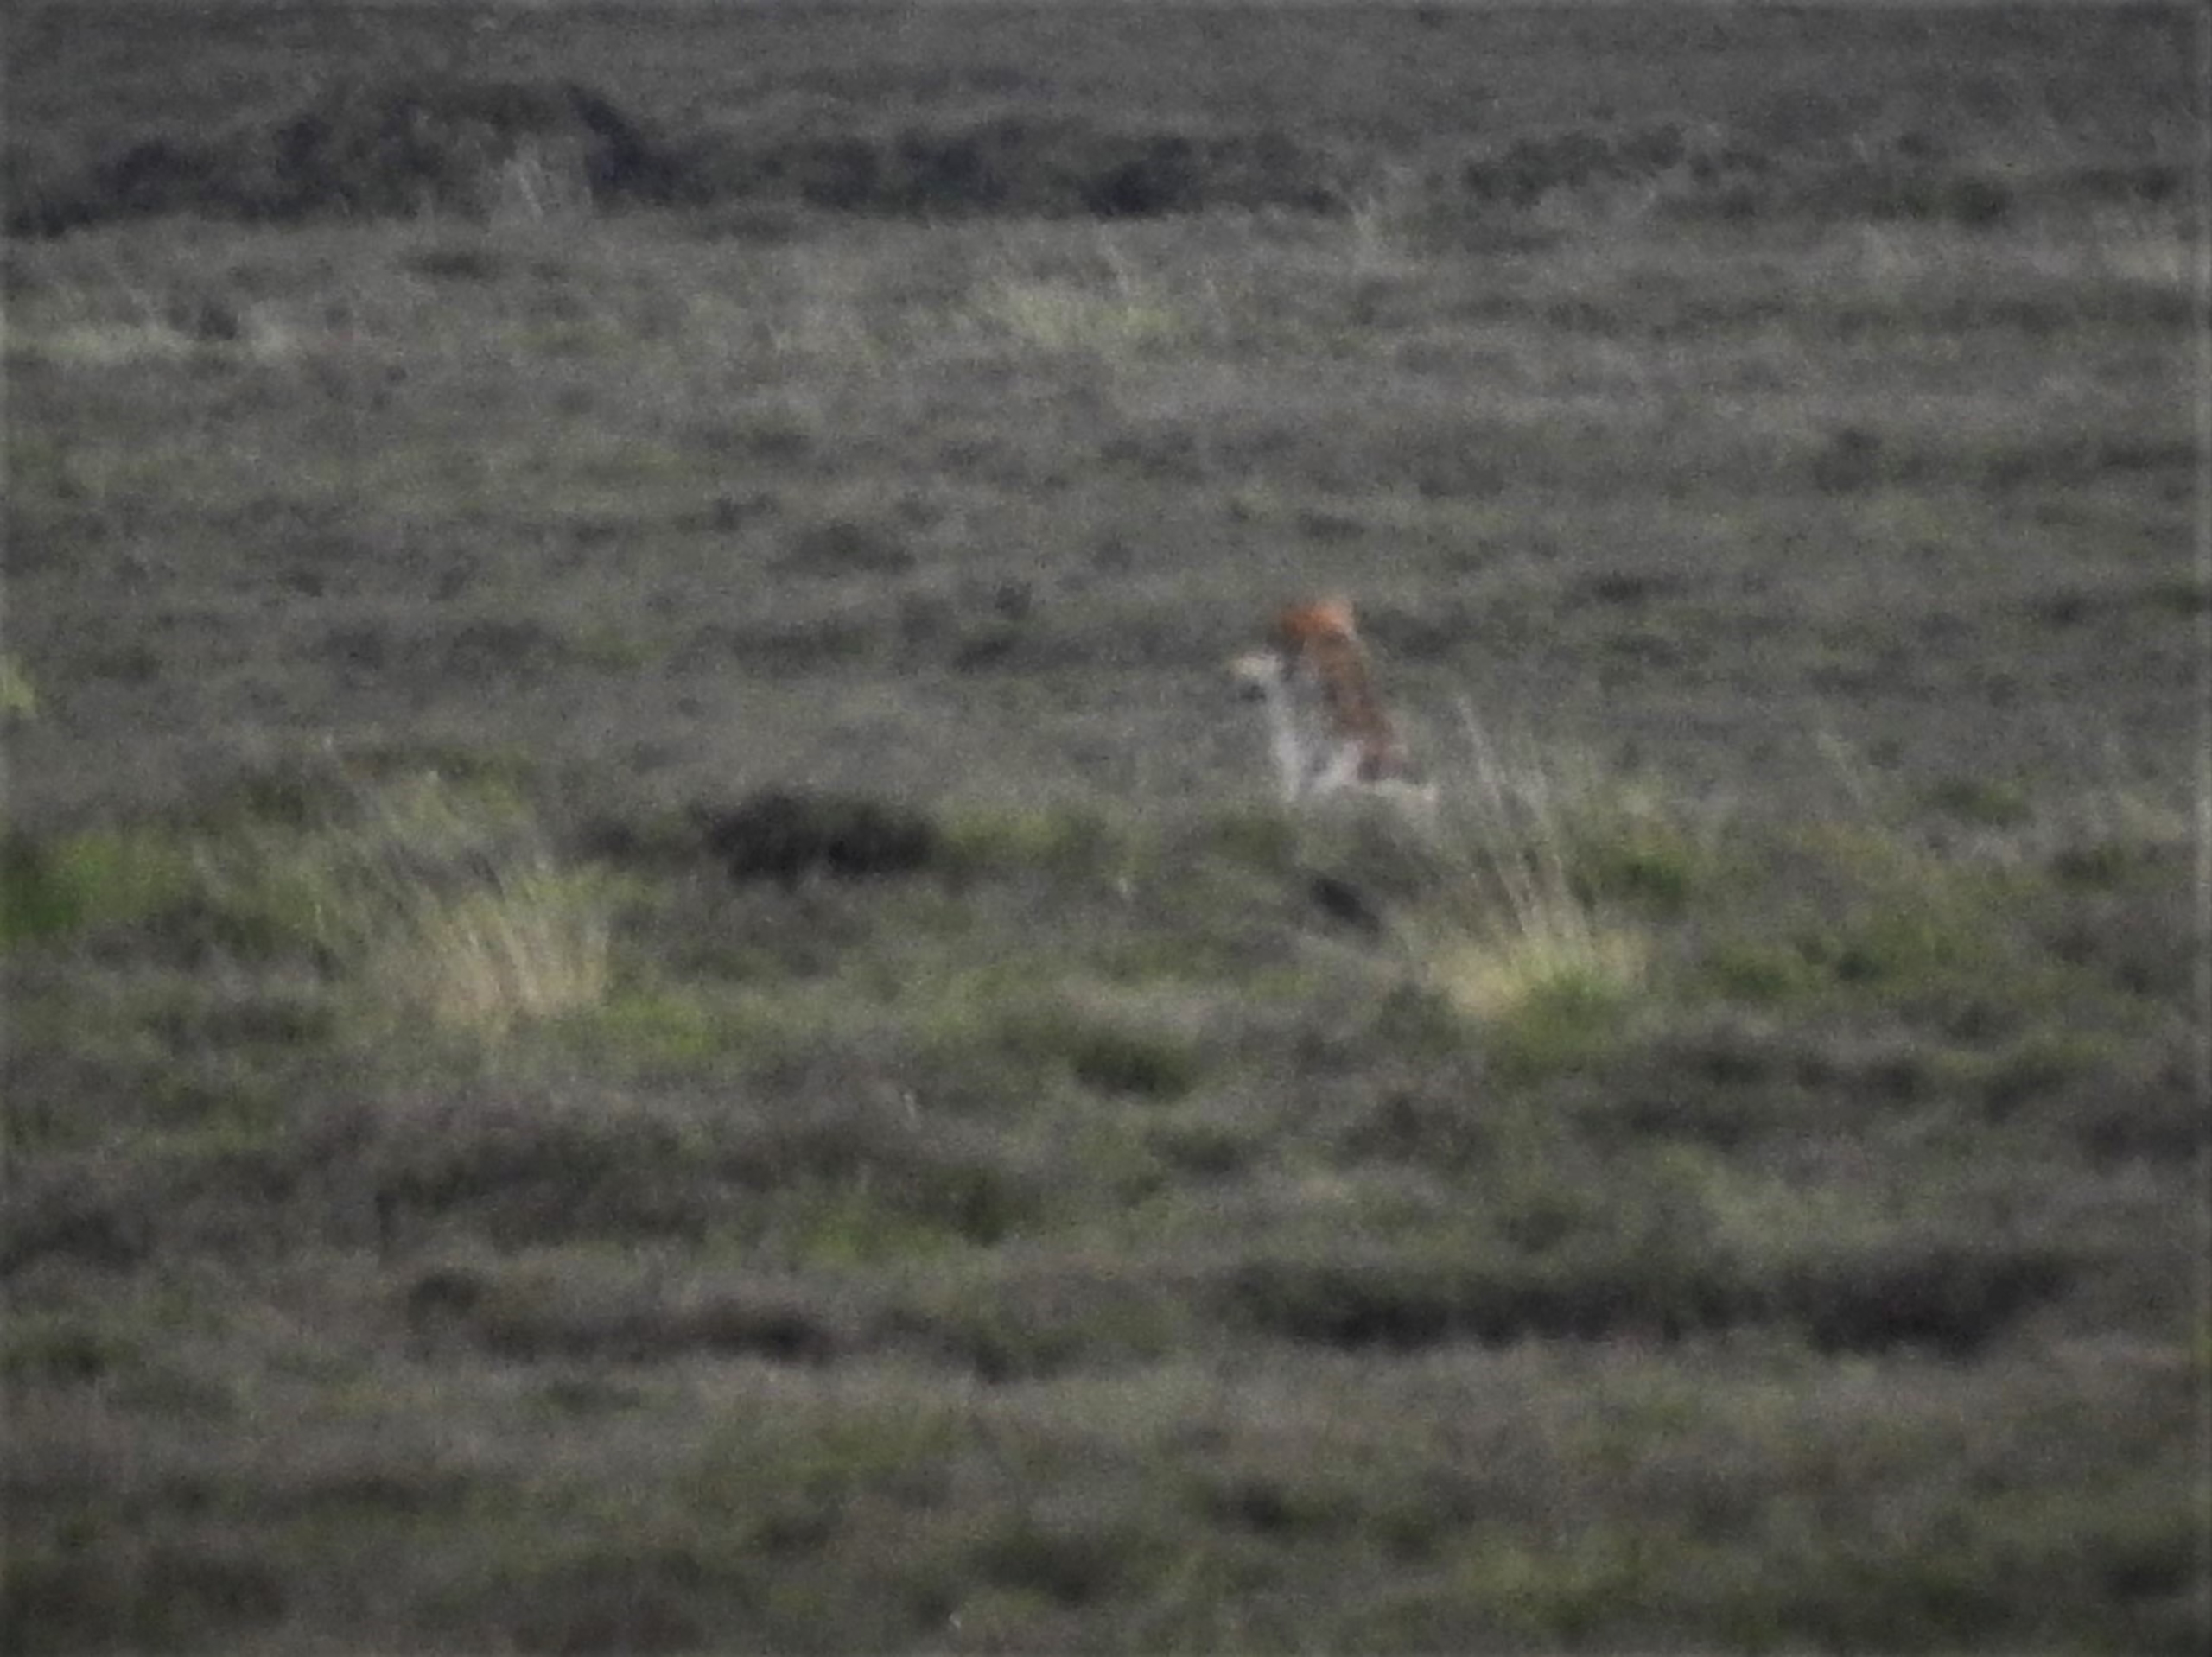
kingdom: Animalia
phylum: Chordata
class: Mammalia
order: Carnivora
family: Canidae
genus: Canis
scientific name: Canis lupus
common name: Ulv
